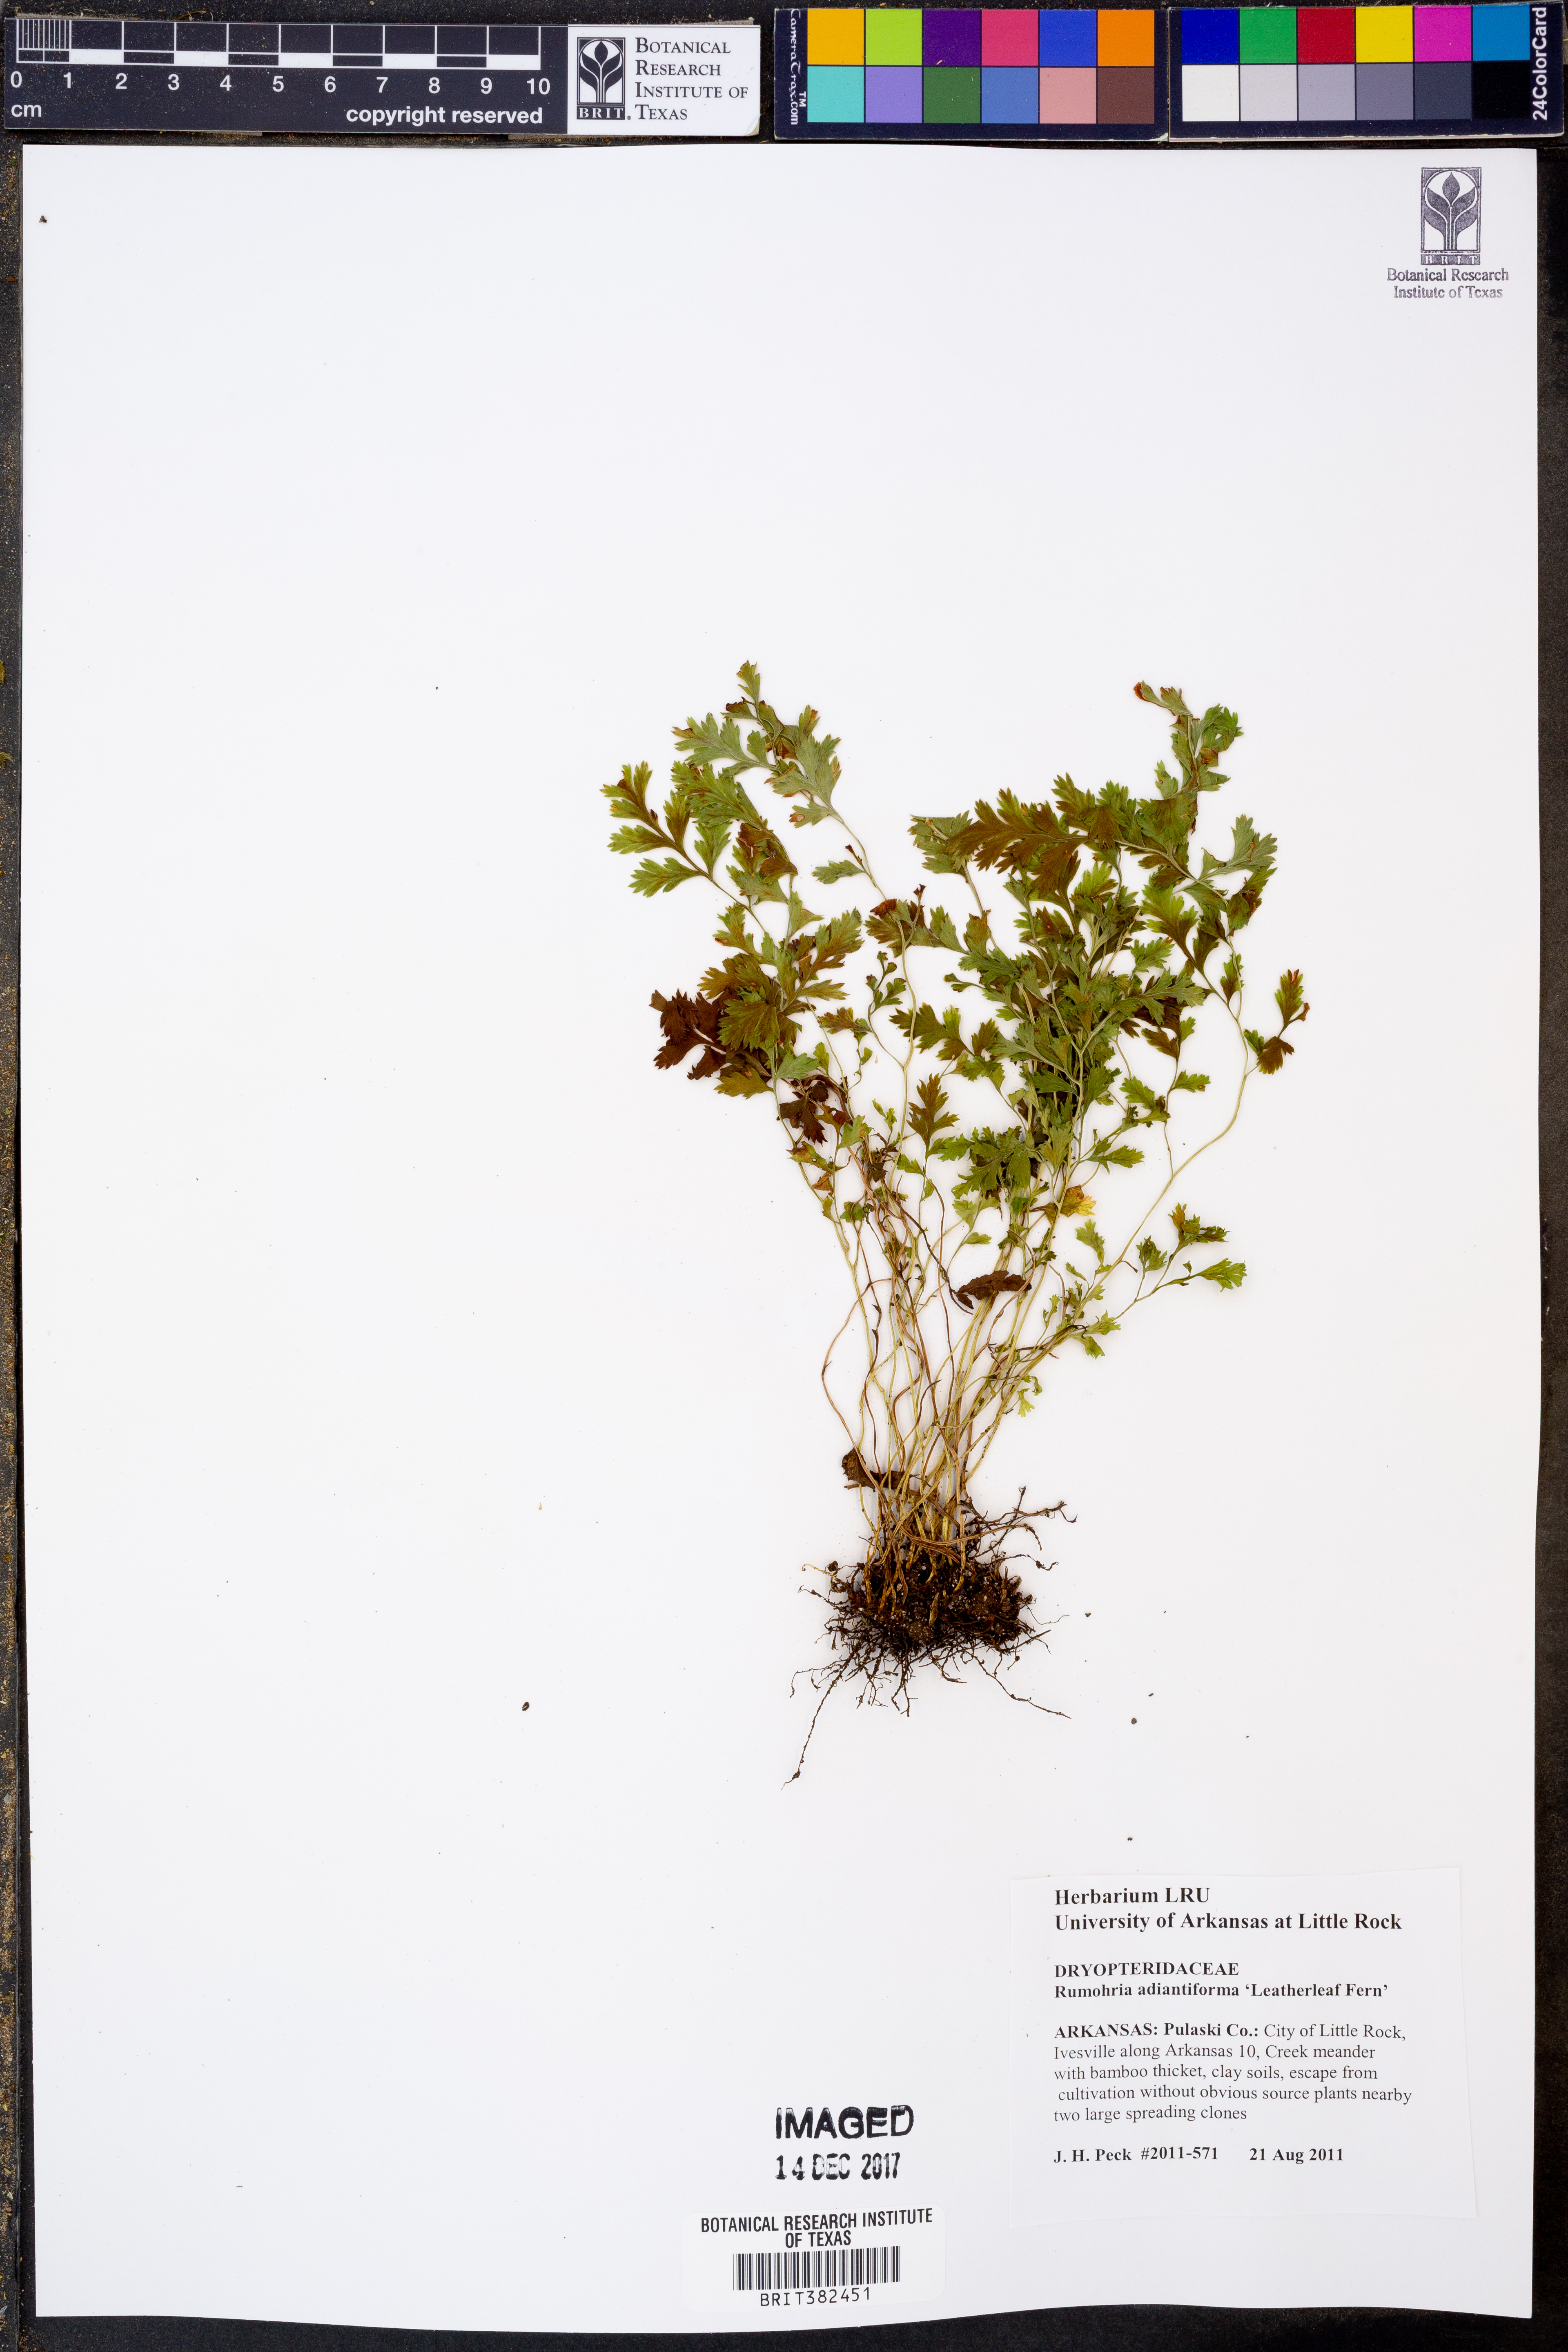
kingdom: Plantae
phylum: Tracheophyta
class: Polypodiopsida
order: Polypodiales
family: Dryopteridaceae
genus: Rumohra
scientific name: Rumohra adiantiformis
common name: Leather fern
